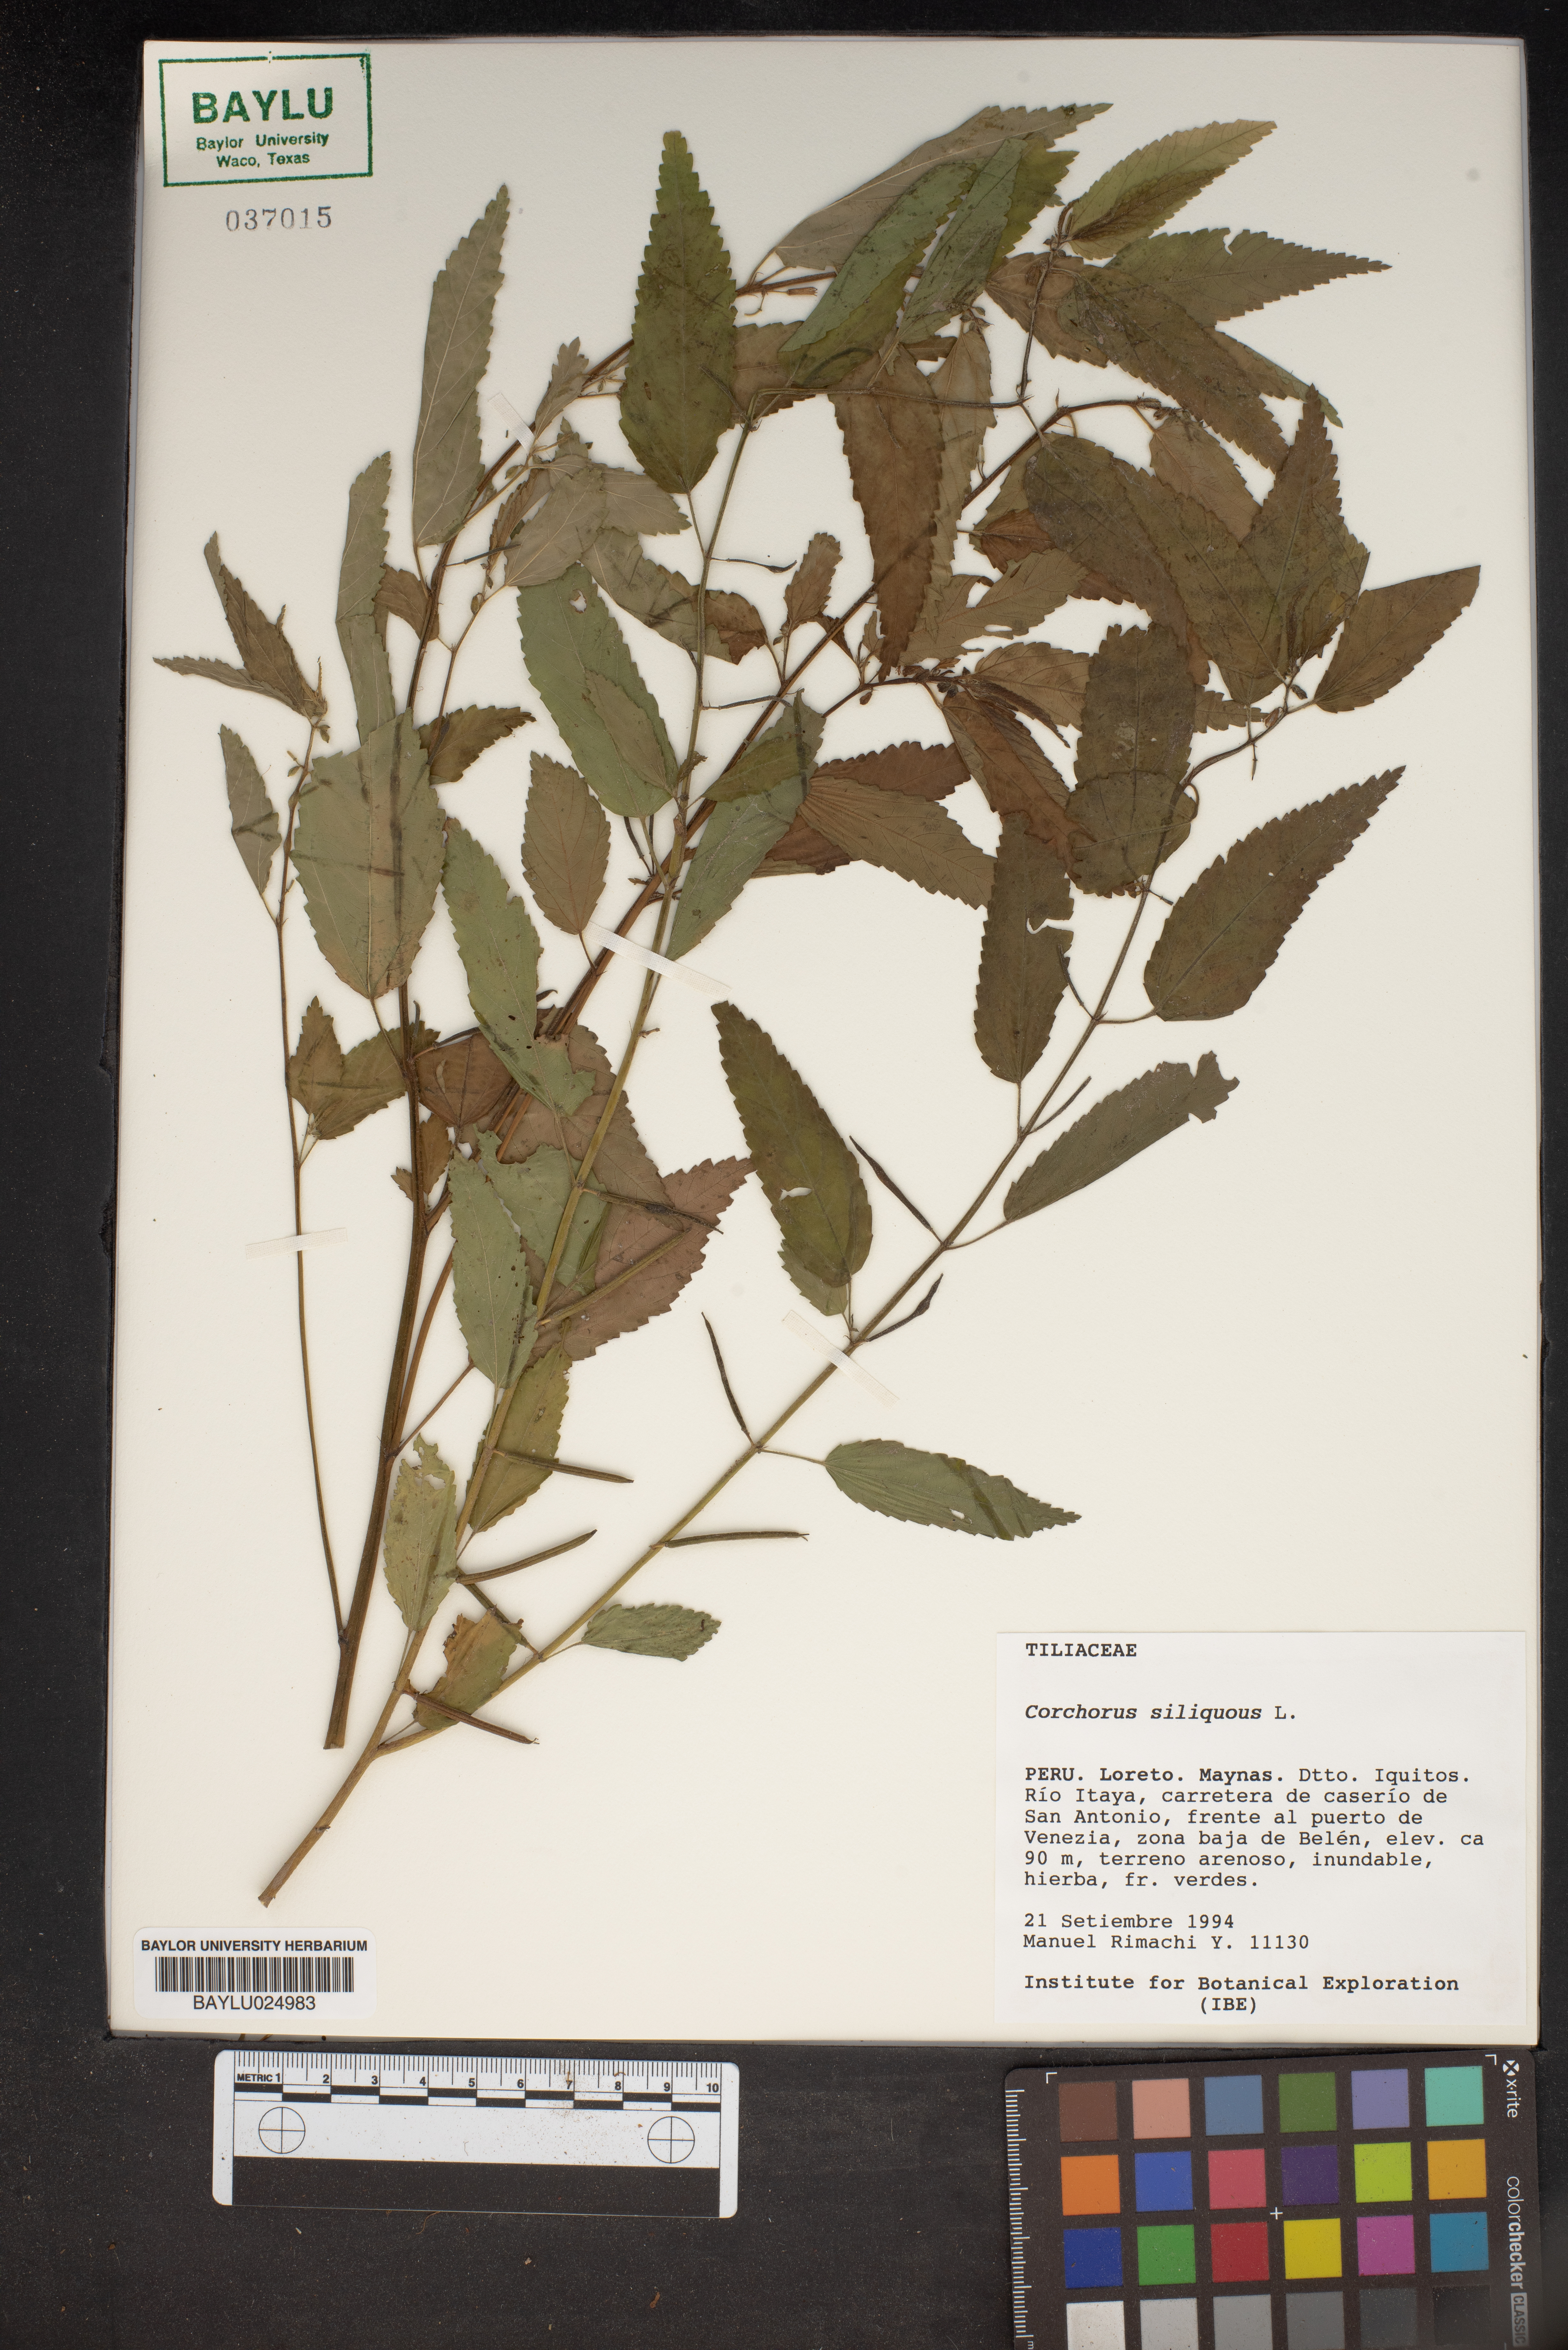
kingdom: Plantae
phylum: Tracheophyta
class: Magnoliopsida
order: Malvales
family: Malvaceae
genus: Corchorus
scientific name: Corchorus hirtus
